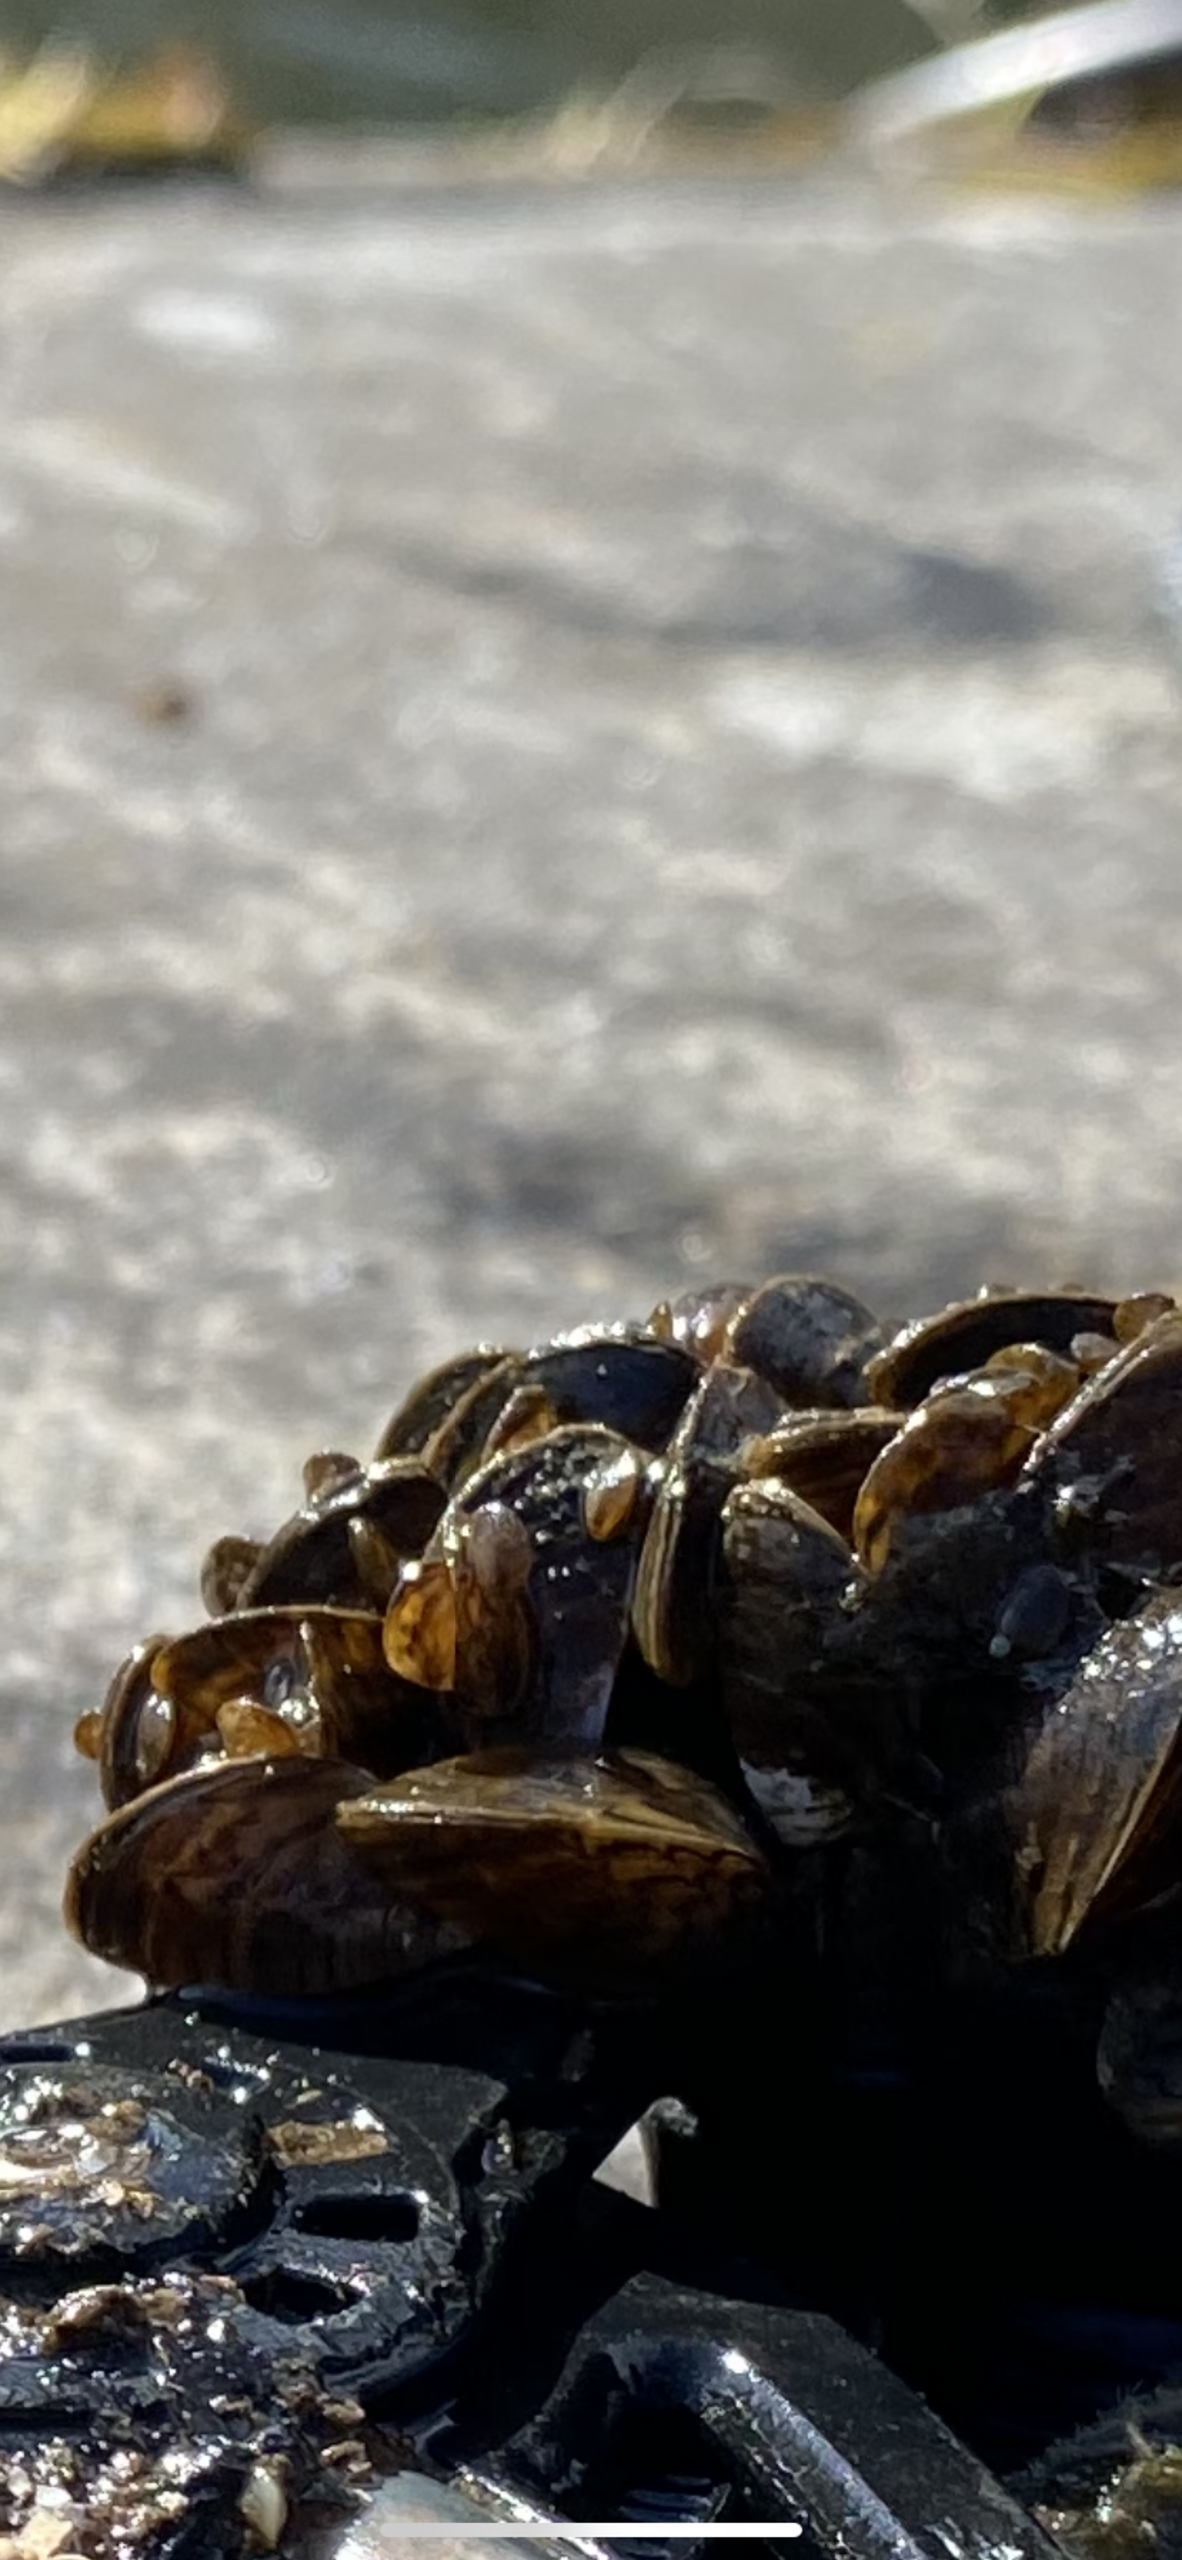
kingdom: Animalia
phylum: Mollusca
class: Bivalvia
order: Myida
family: Dreissenidae
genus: Dreissena
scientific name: Dreissena polymorpha
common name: Vandremusling
